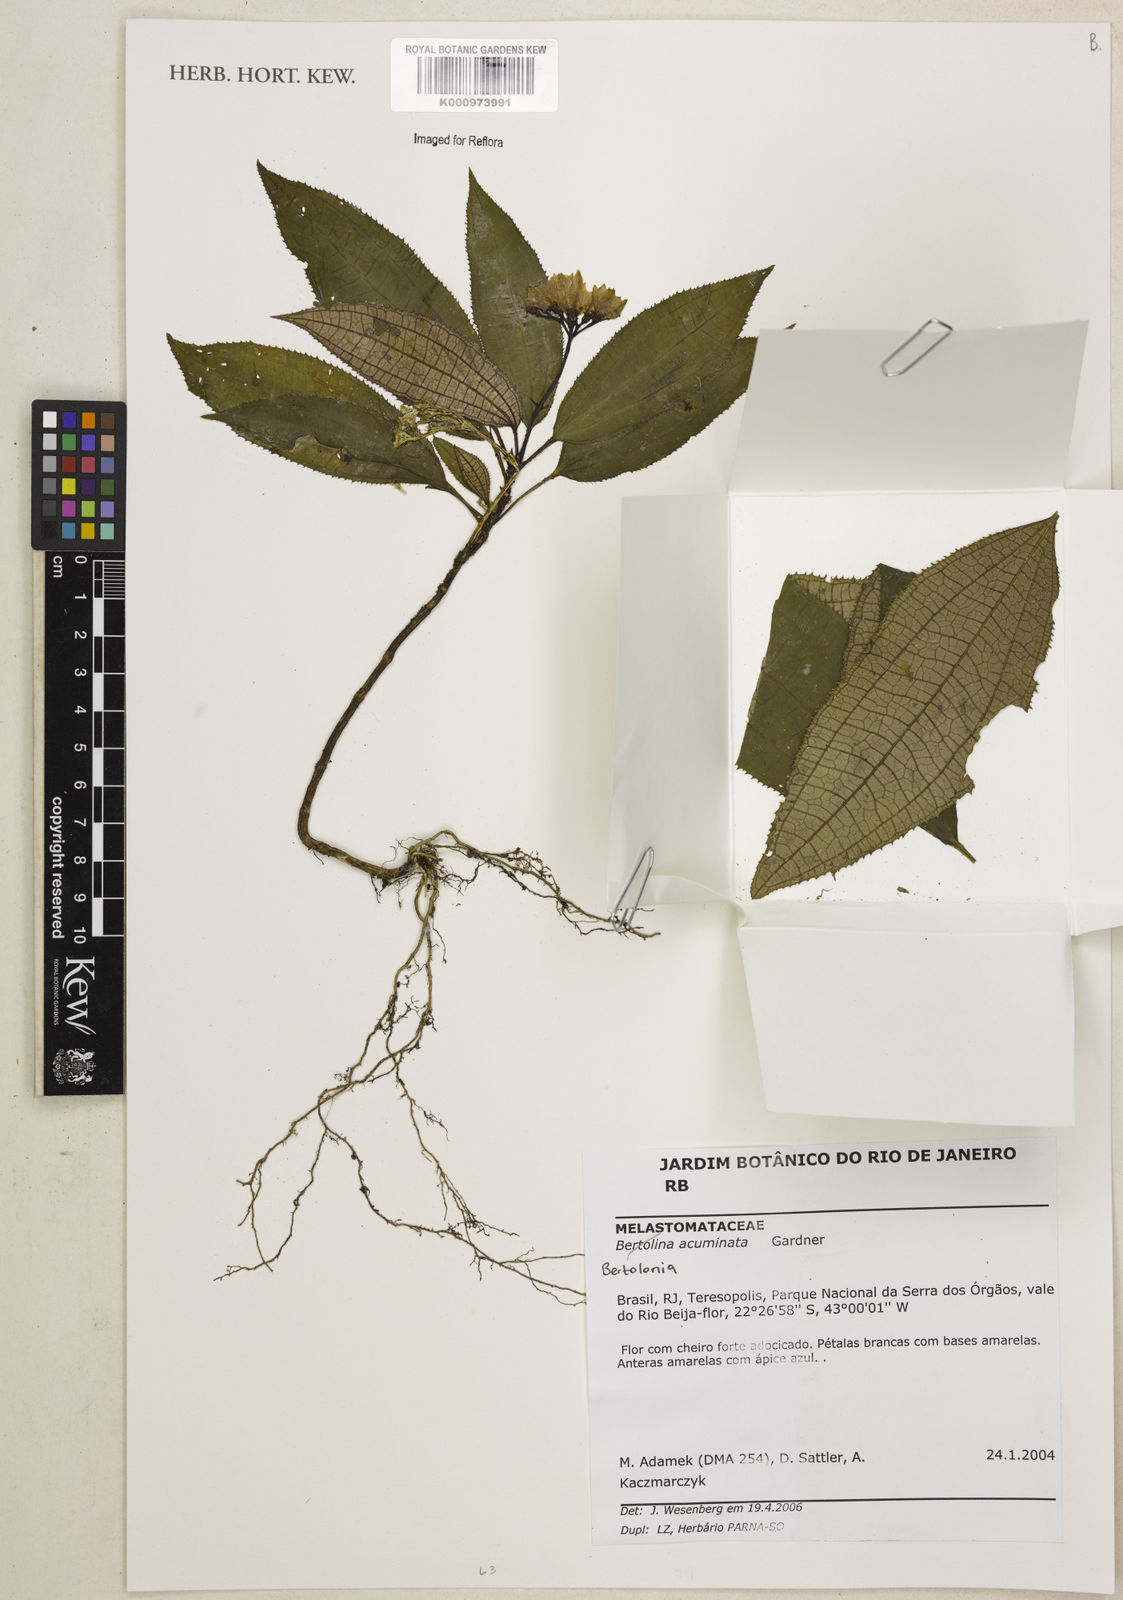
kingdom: Plantae
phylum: Tracheophyta
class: Magnoliopsida
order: Myrtales
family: Melastomataceae
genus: Bertolonia
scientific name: Bertolonia acuminata
